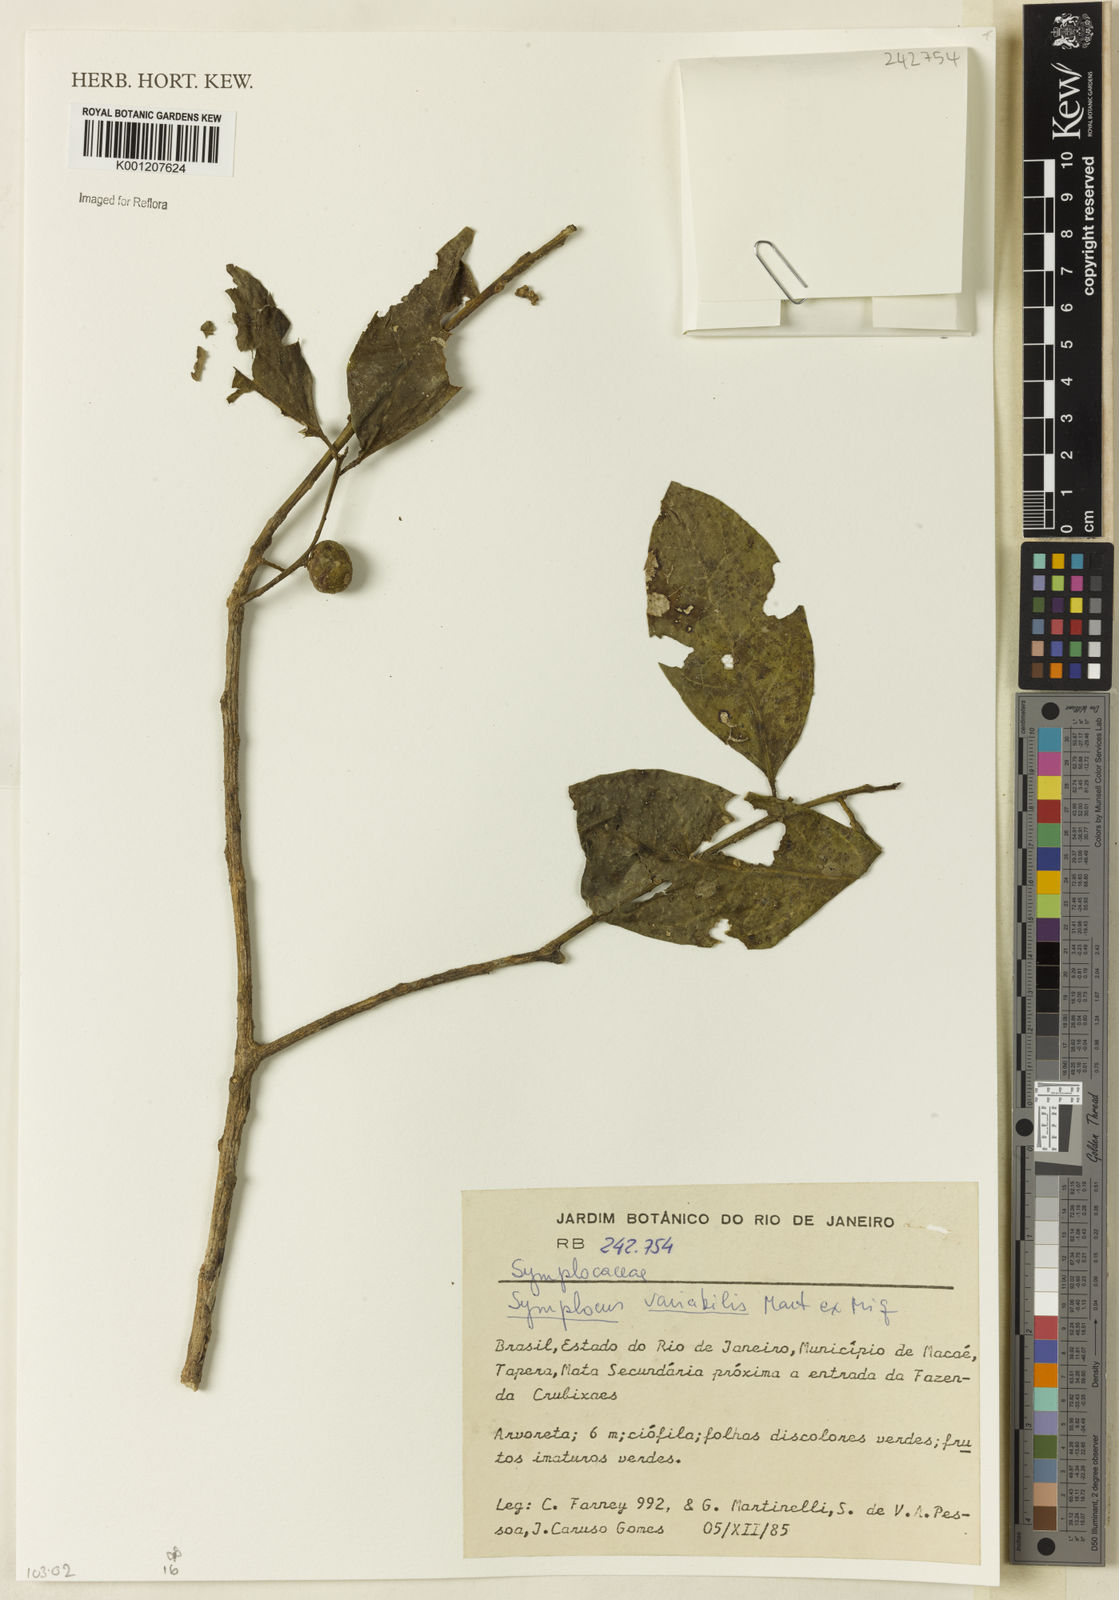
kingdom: Plantae
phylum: Tracheophyta
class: Magnoliopsida
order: Ericales
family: Symplocaceae
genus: Symplocos
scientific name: Symplocos estrellensis
